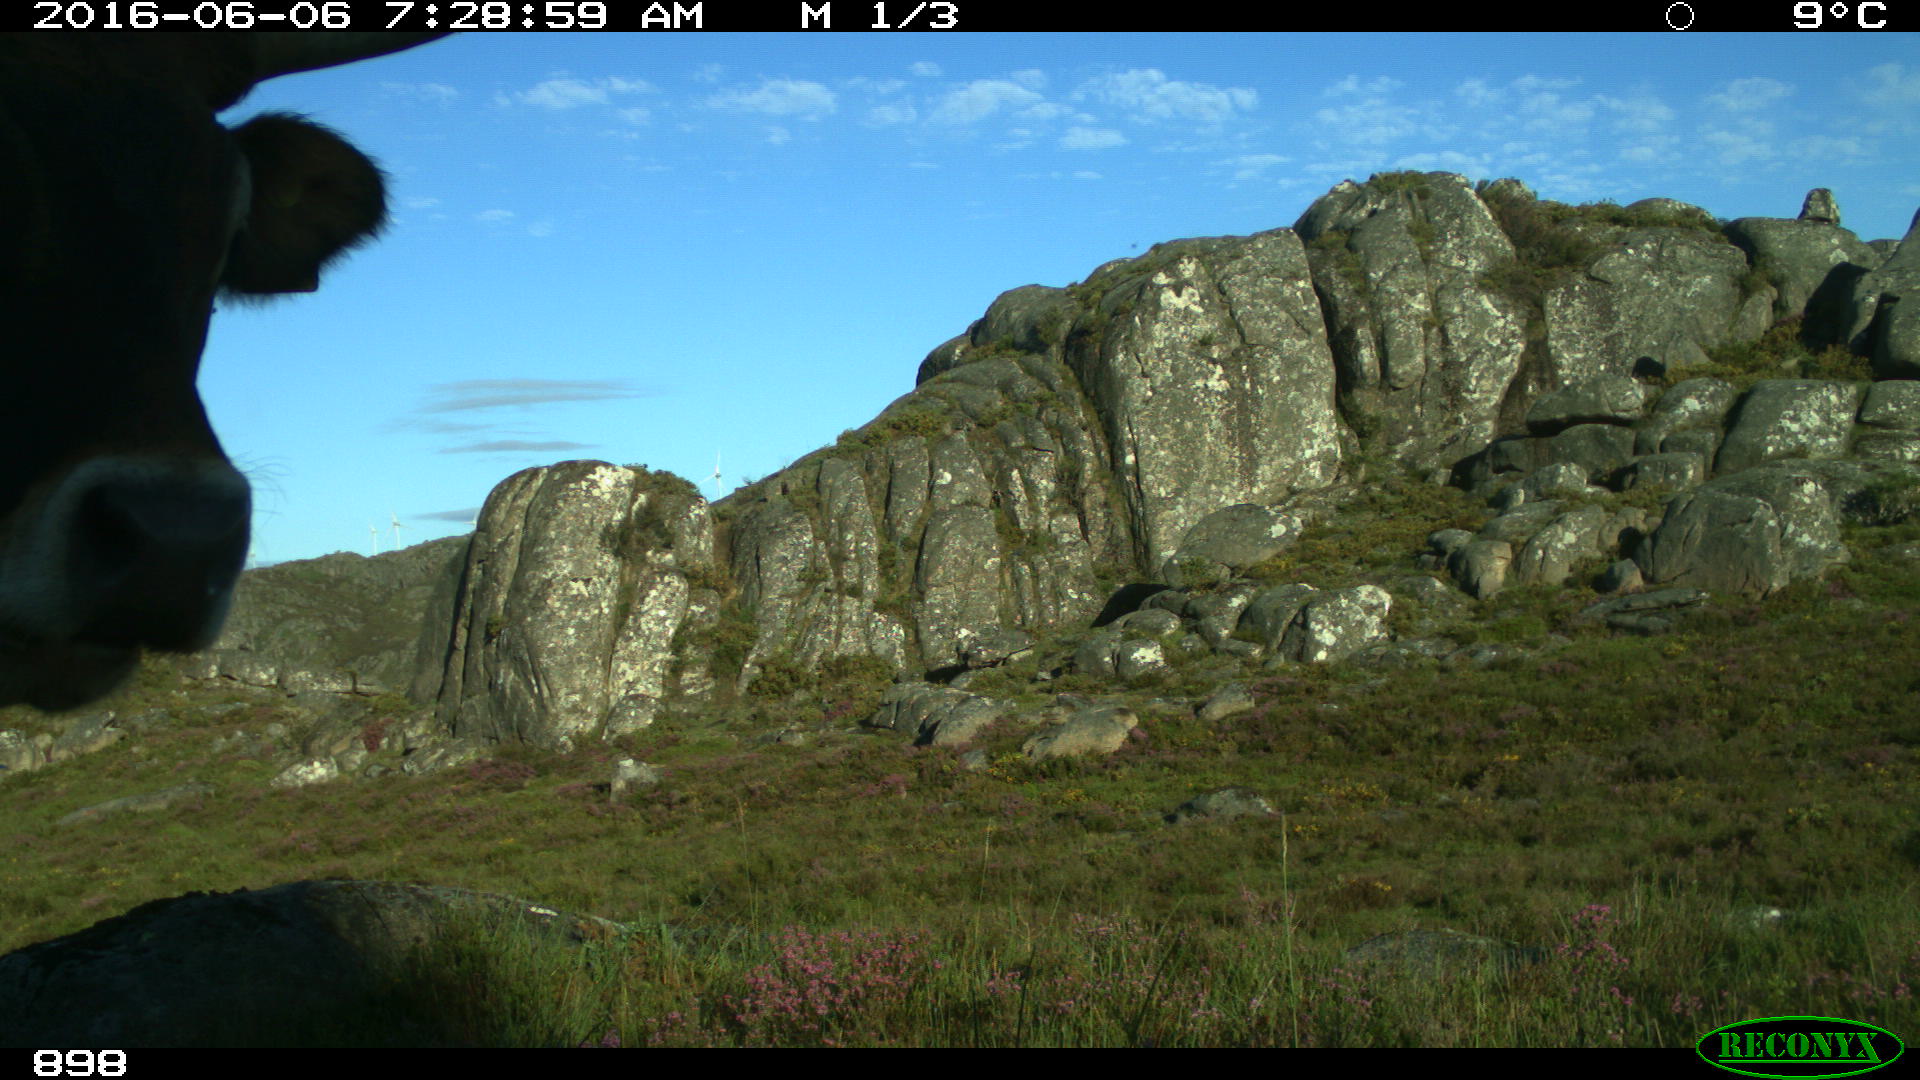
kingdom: Animalia
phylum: Chordata
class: Mammalia
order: Artiodactyla
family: Bovidae
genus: Bos
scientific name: Bos taurus
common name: Domesticated cattle
